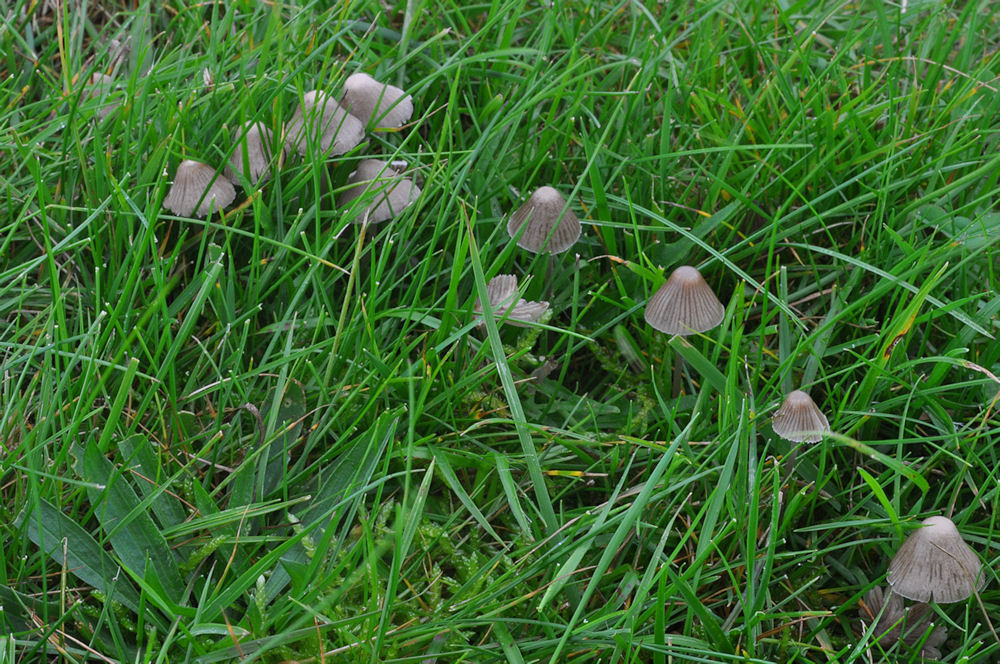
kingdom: Fungi
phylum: Basidiomycota
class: Agaricomycetes
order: Agaricales
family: Mycenaceae
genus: Mycena
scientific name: Mycena aetites
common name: plæne-huesvamp
